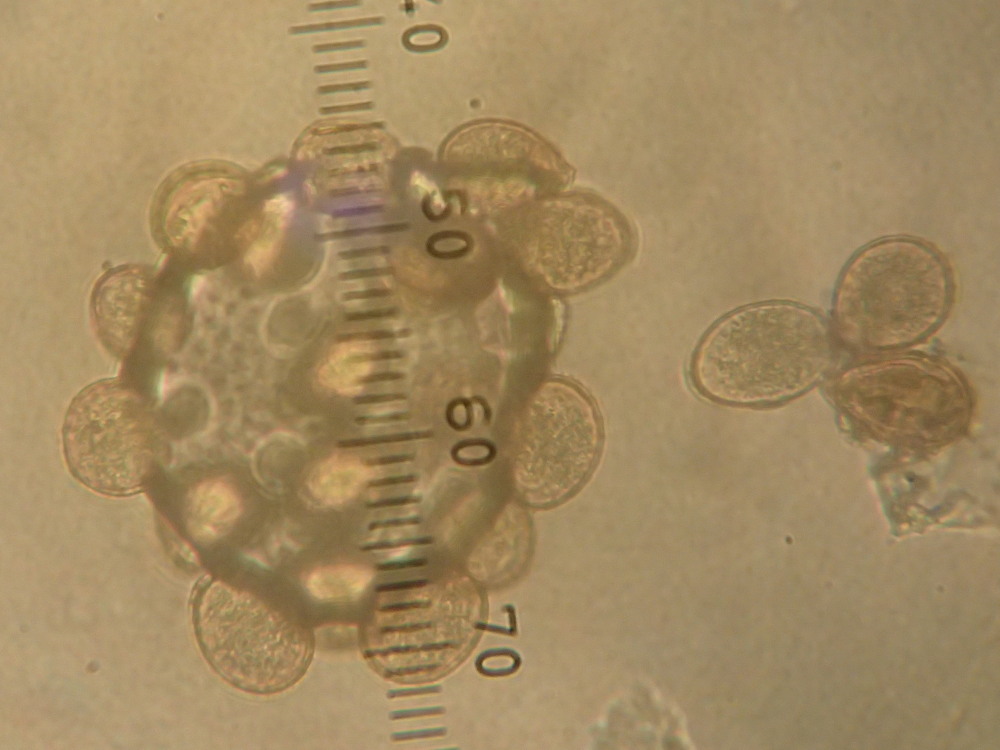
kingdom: Fungi
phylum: Basidiomycota
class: Pucciniomycetes
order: Pucciniales
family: Pucciniaceae
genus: Uromyces
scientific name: Uromyces lineolatus
